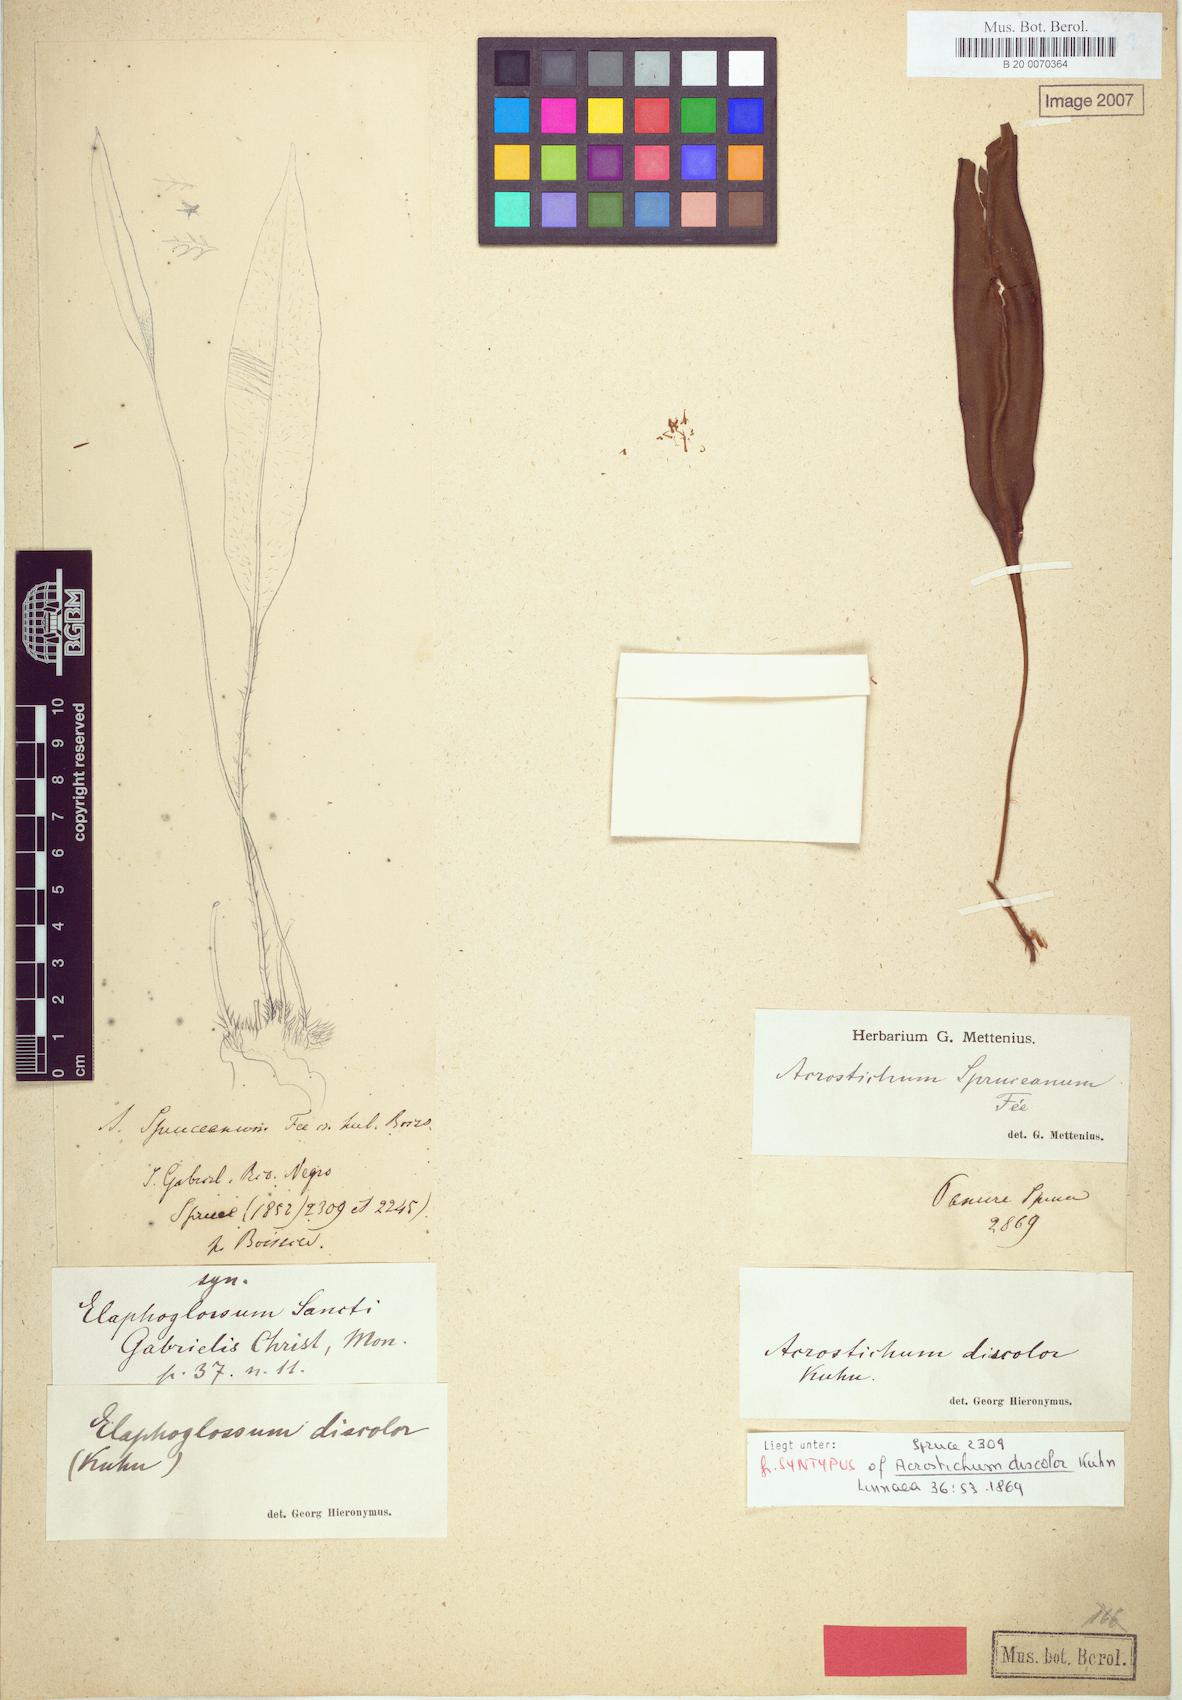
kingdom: Plantae
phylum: Tracheophyta
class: Polypodiopsida
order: Polypodiales
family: Dryopteridaceae
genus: Elaphoglossum
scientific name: Elaphoglossum discolor
